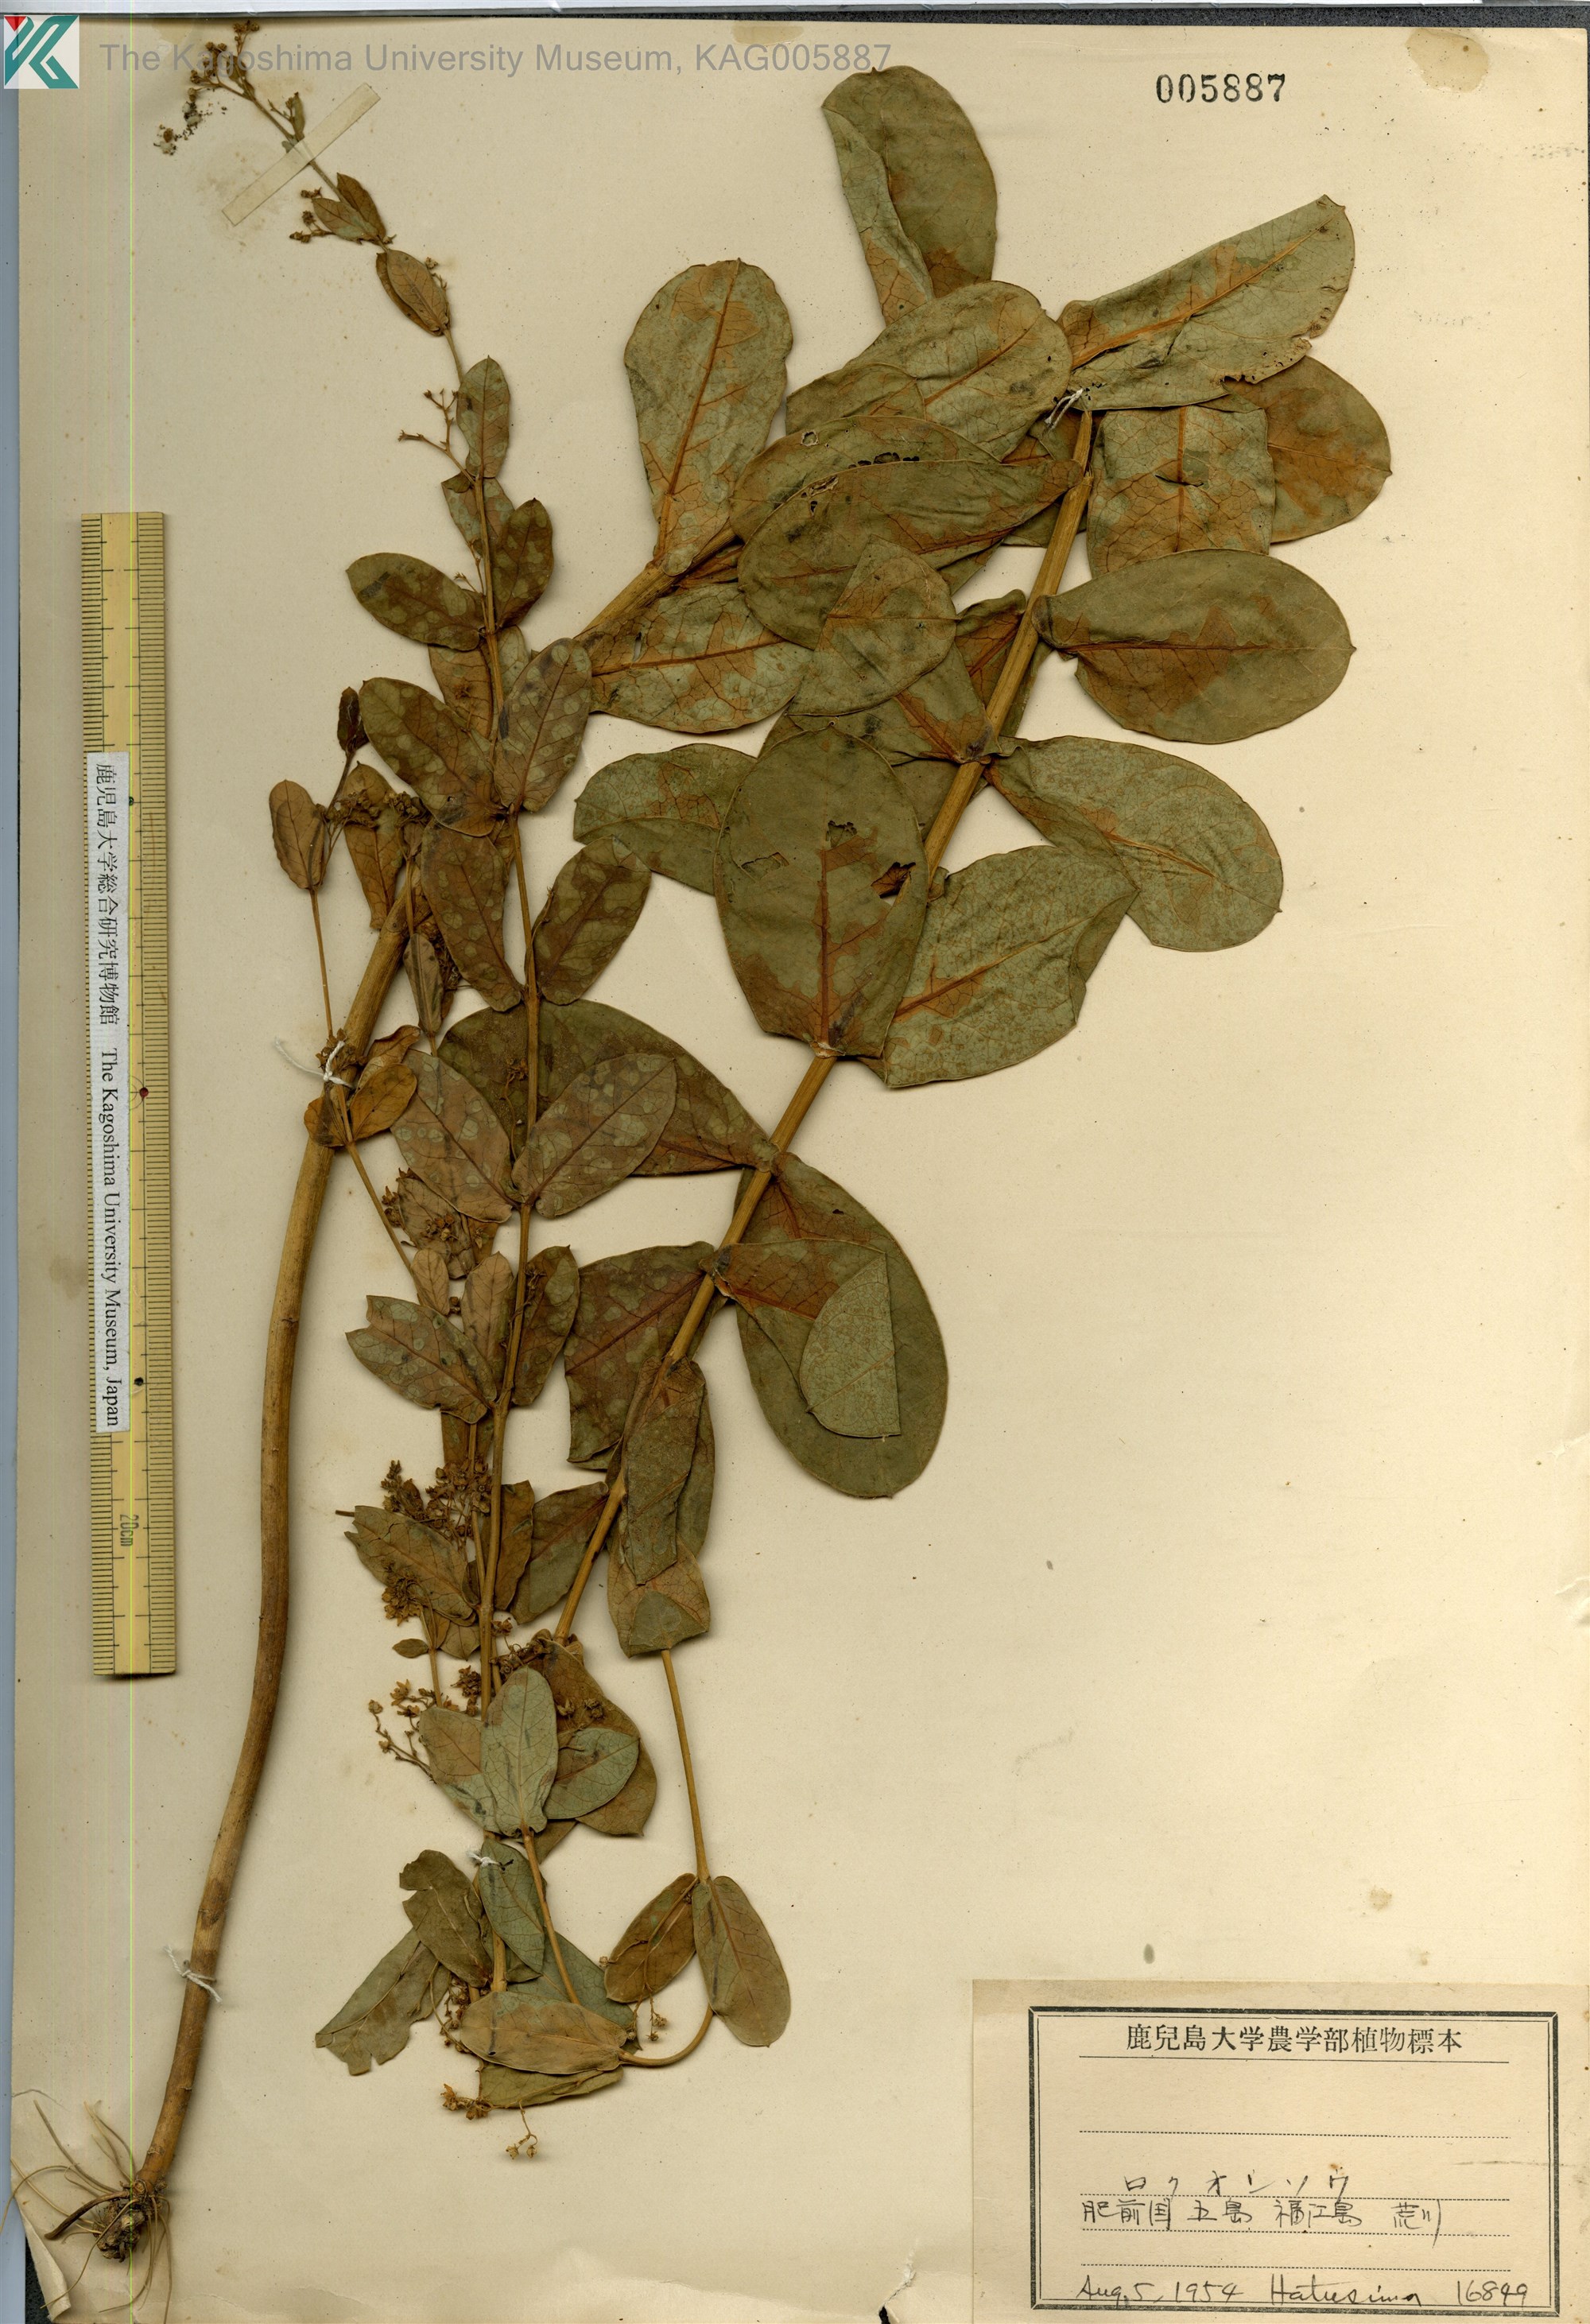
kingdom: Plantae
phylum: Tracheophyta
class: Magnoliopsida
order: Gentianales
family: Apocynaceae
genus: Vincetoxicum
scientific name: Vincetoxicum amplexicaule
